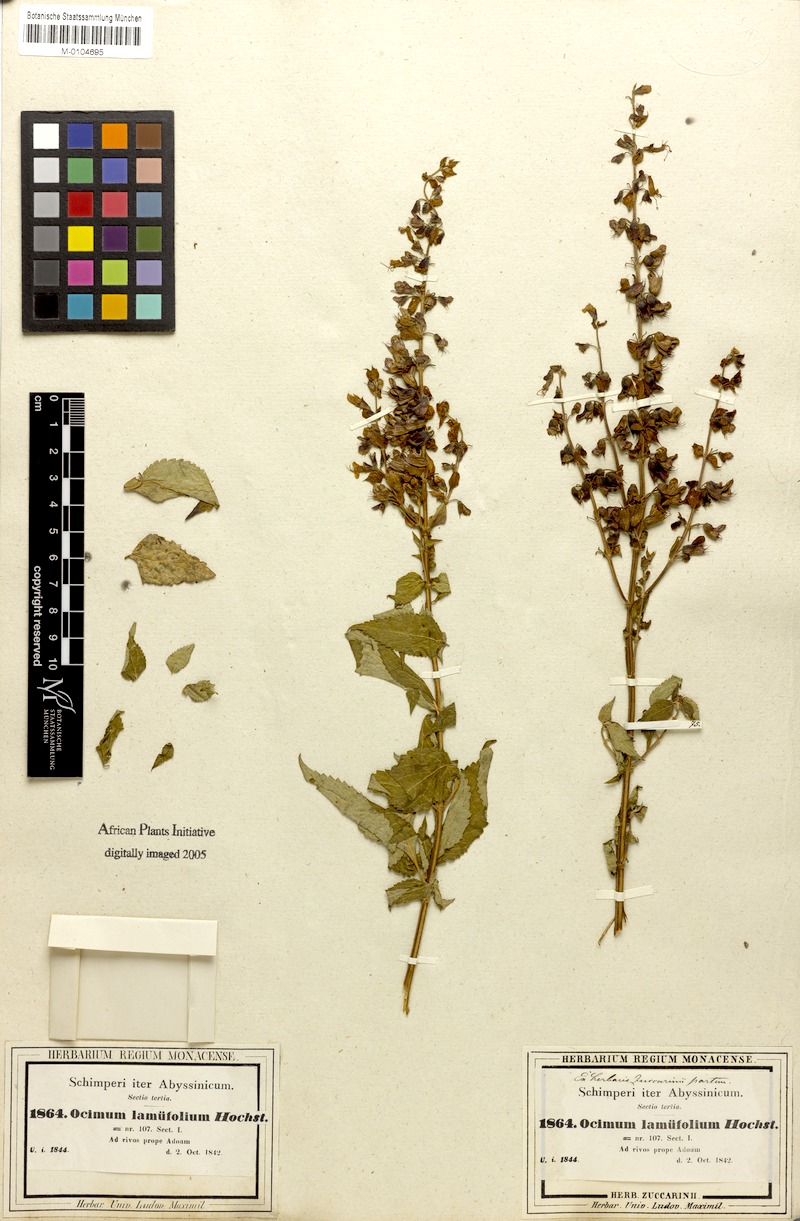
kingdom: Plantae
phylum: Tracheophyta
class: Magnoliopsida
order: Lamiales
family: Lamiaceae
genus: Ocimum
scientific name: Ocimum lamiifolium
